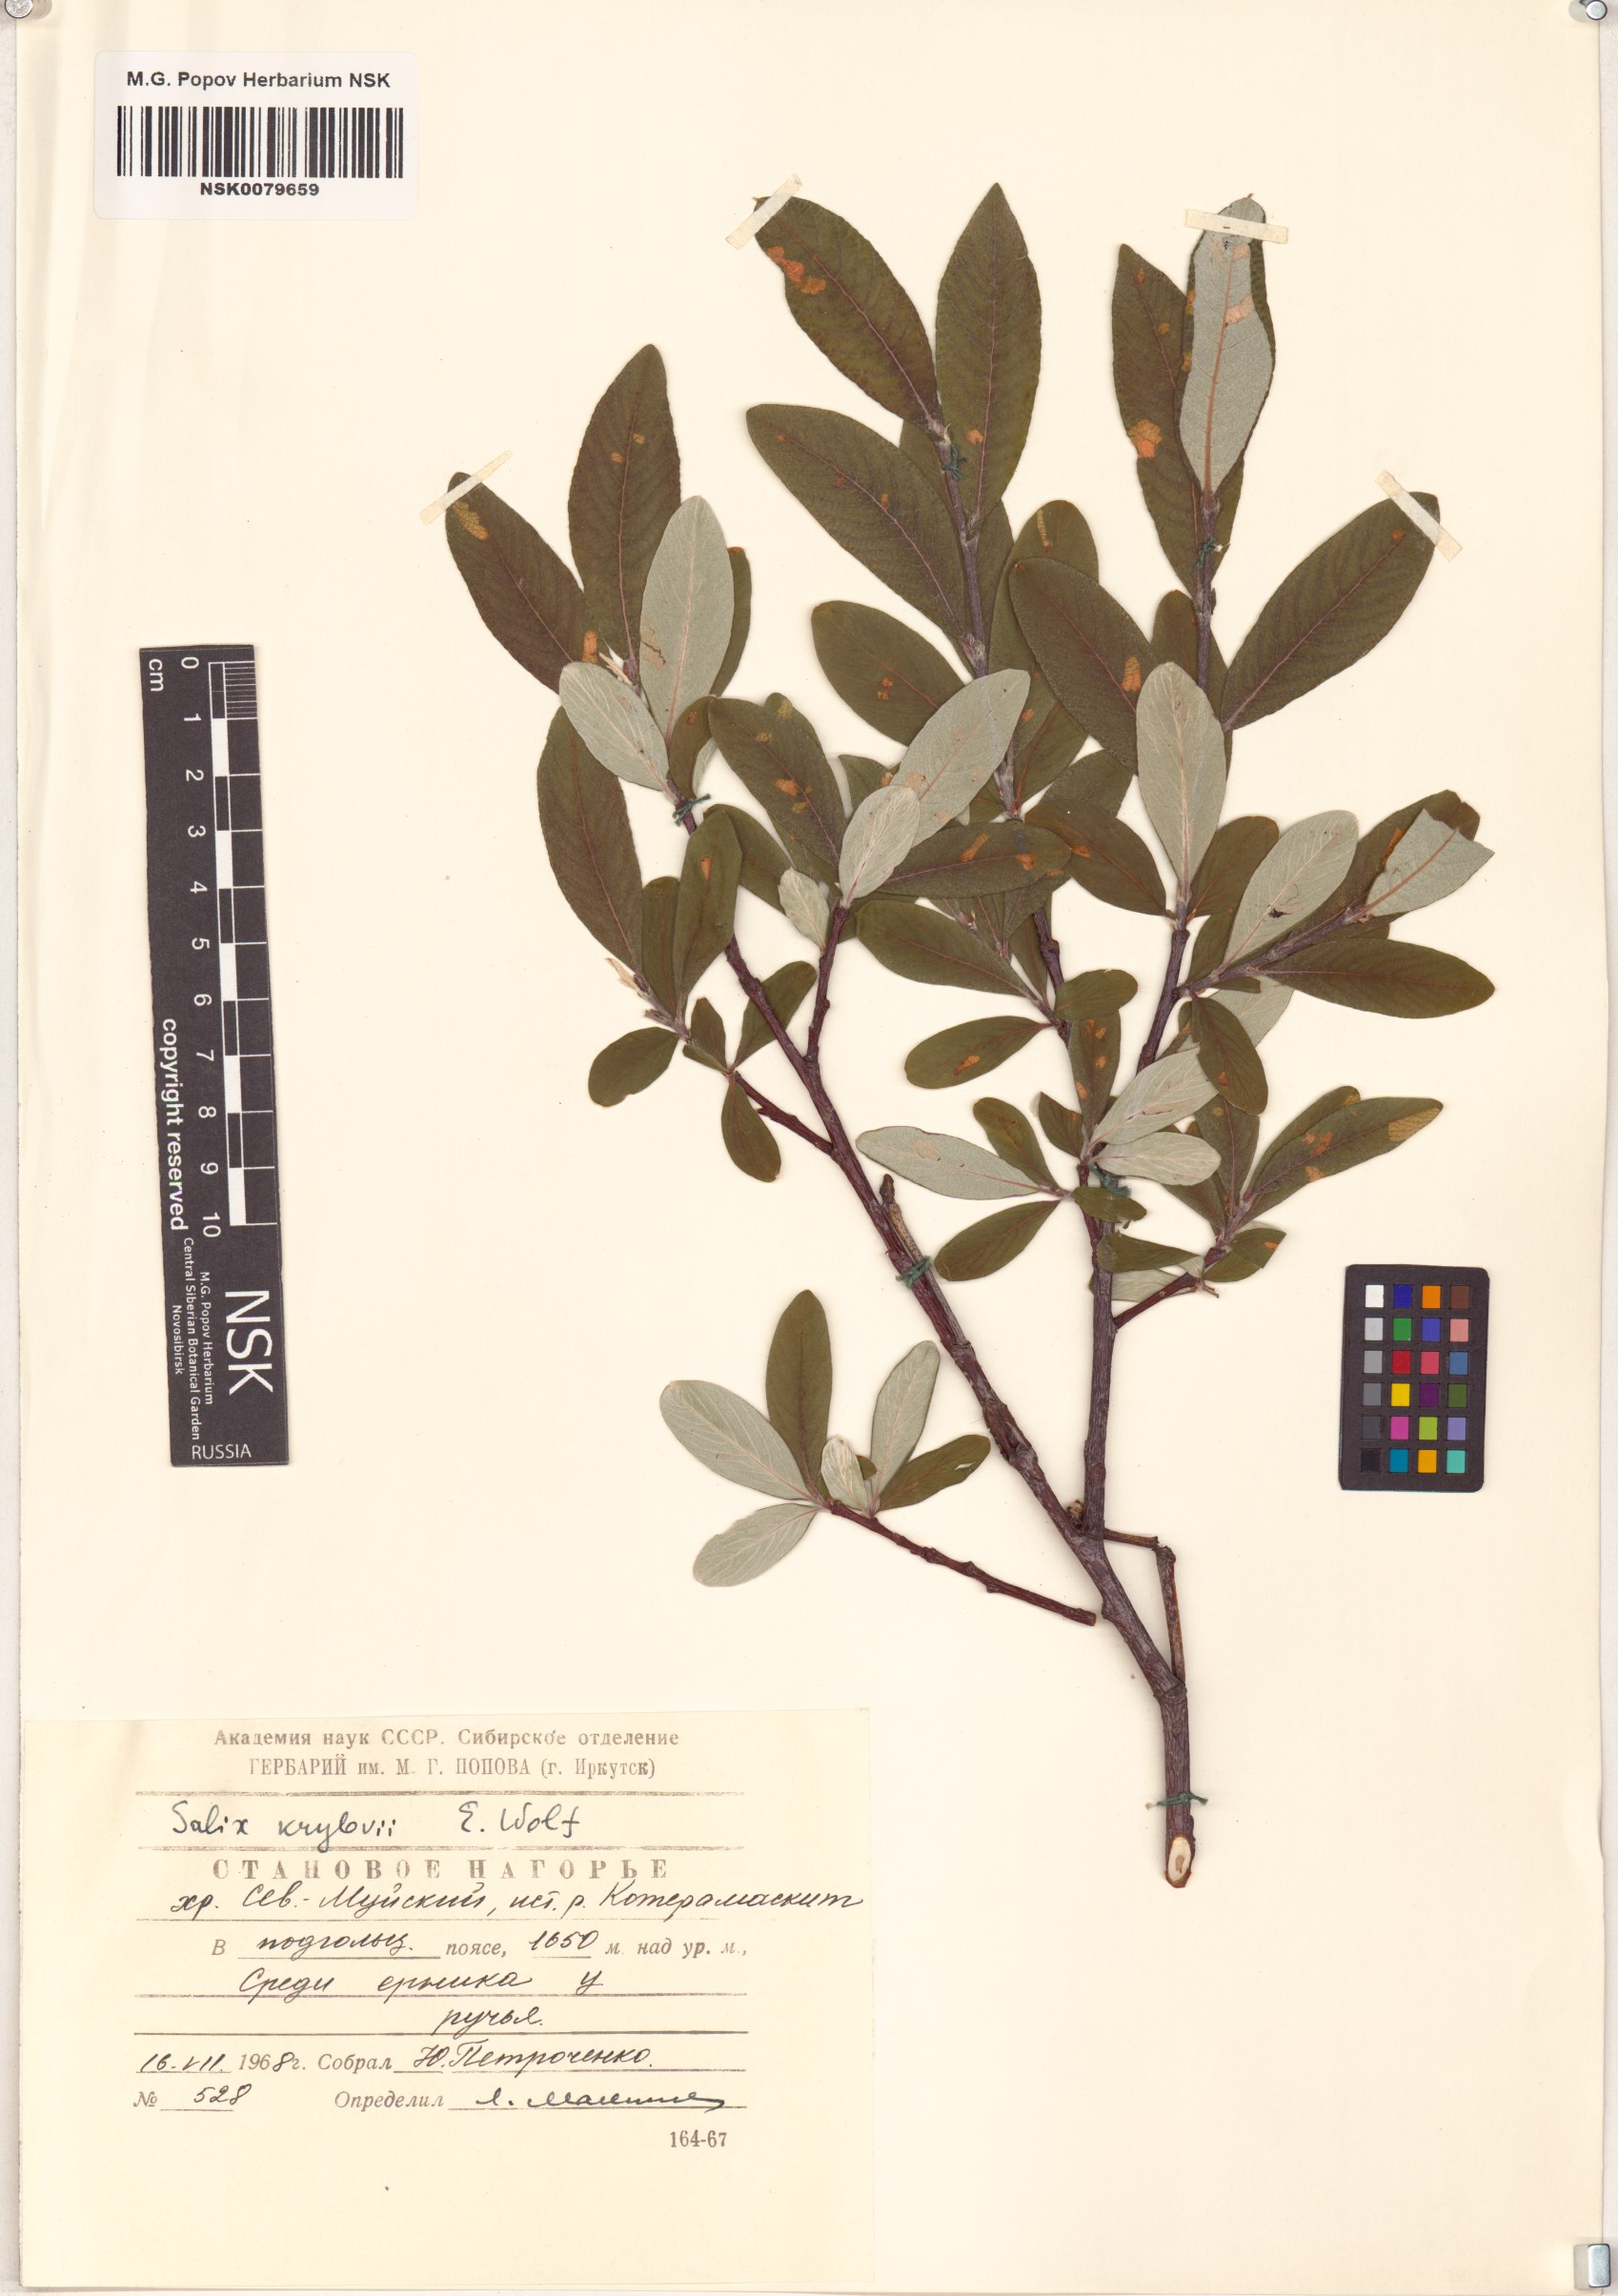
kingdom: Plantae
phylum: Tracheophyta
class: Magnoliopsida
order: Malpighiales
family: Salicaceae
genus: Salix
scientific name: Salix krylovii
